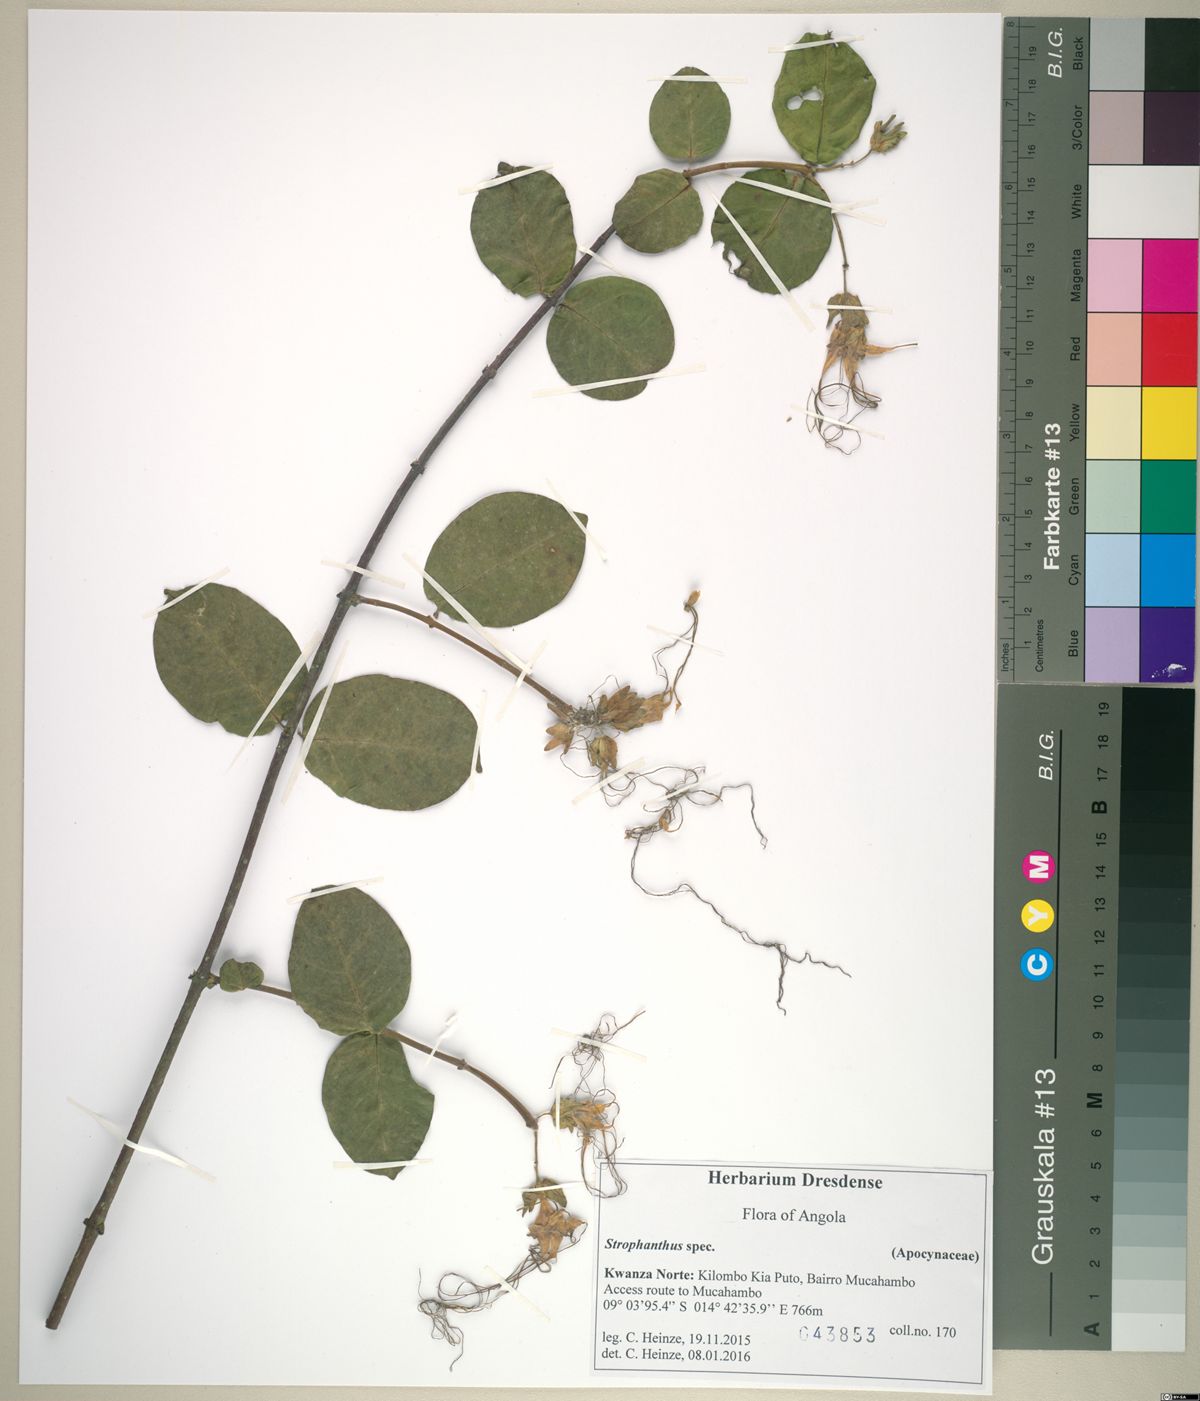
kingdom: Plantae
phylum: Tracheophyta
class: Magnoliopsida
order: Gentianales
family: Apocynaceae
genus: Strophanthus
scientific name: Strophanthus preussii
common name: Medisa-flower
